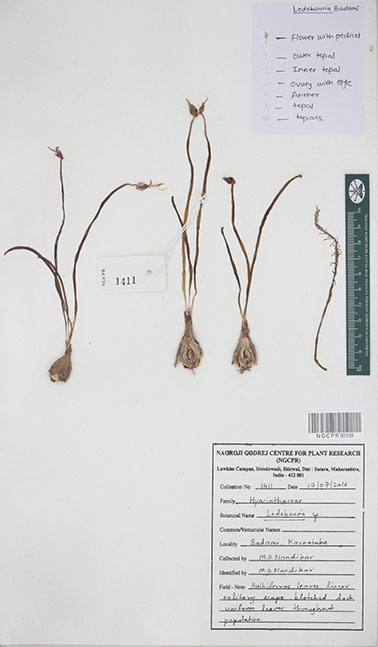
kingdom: Plantae
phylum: Tracheophyta
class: Liliopsida
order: Asparagales
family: Asparagaceae
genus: Ledebouria
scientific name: Ledebouria
